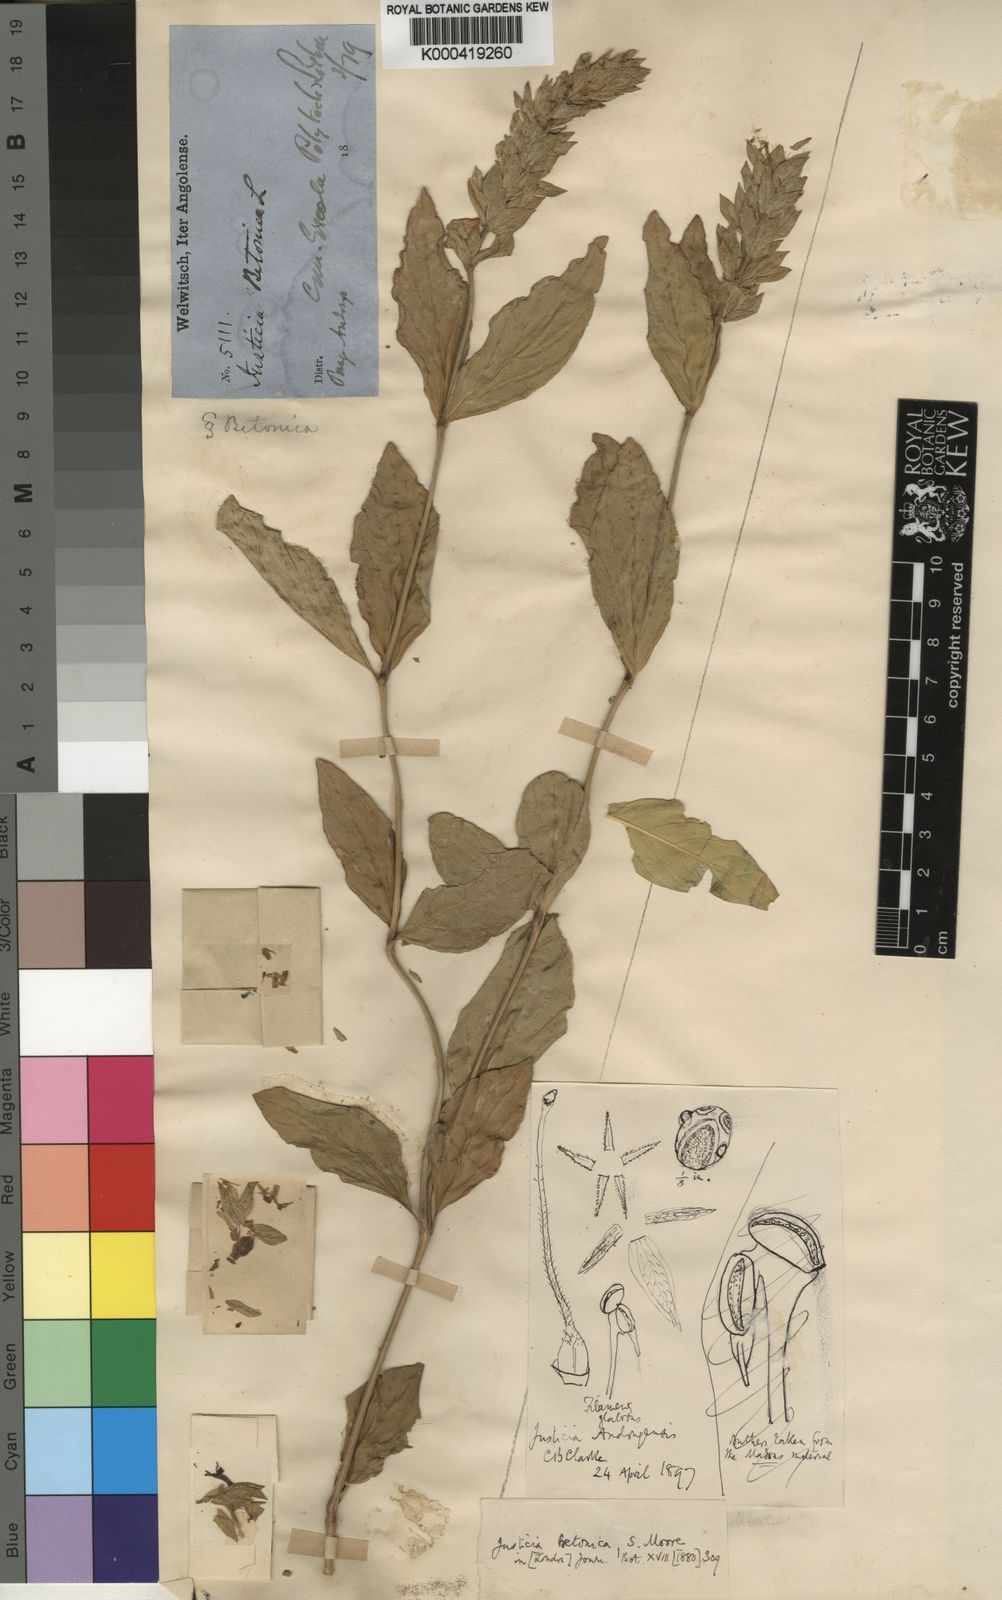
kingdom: Plantae
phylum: Tracheophyta
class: Magnoliopsida
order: Lamiales
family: Acanthaceae
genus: Nicoteba
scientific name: Nicoteba betonica
